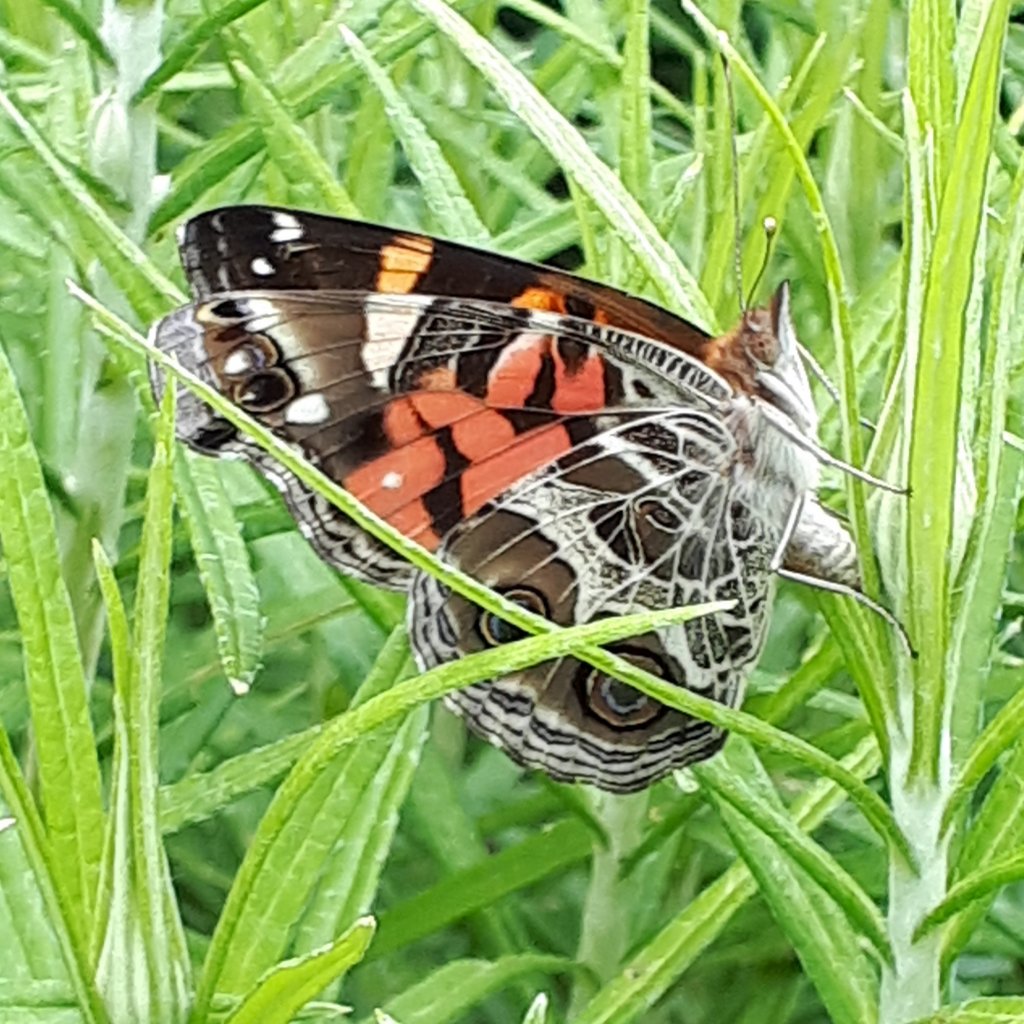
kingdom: Animalia
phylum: Arthropoda
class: Insecta
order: Lepidoptera
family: Nymphalidae
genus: Vanessa
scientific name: Vanessa virginiensis
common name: American Lady
